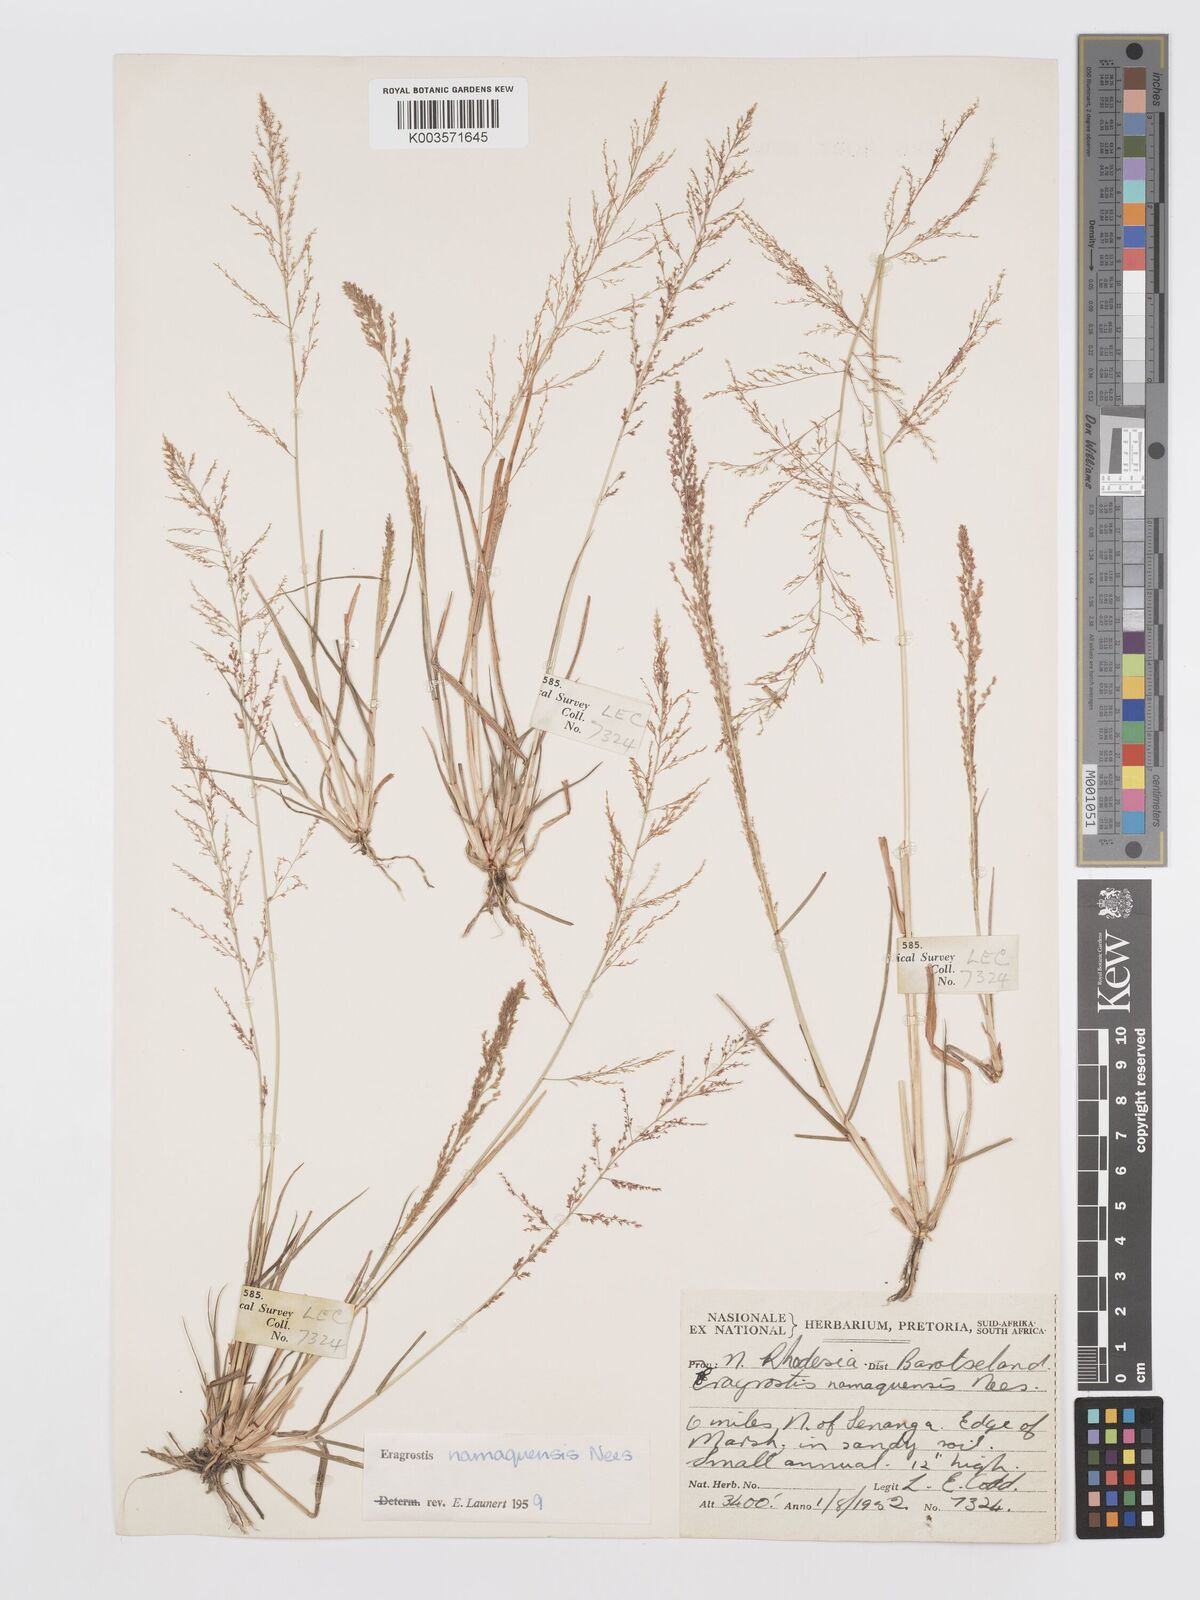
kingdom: Plantae
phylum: Tracheophyta
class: Liliopsida
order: Poales
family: Poaceae
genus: Eragrostis
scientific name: Eragrostis japonica
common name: Pond lovegrass
